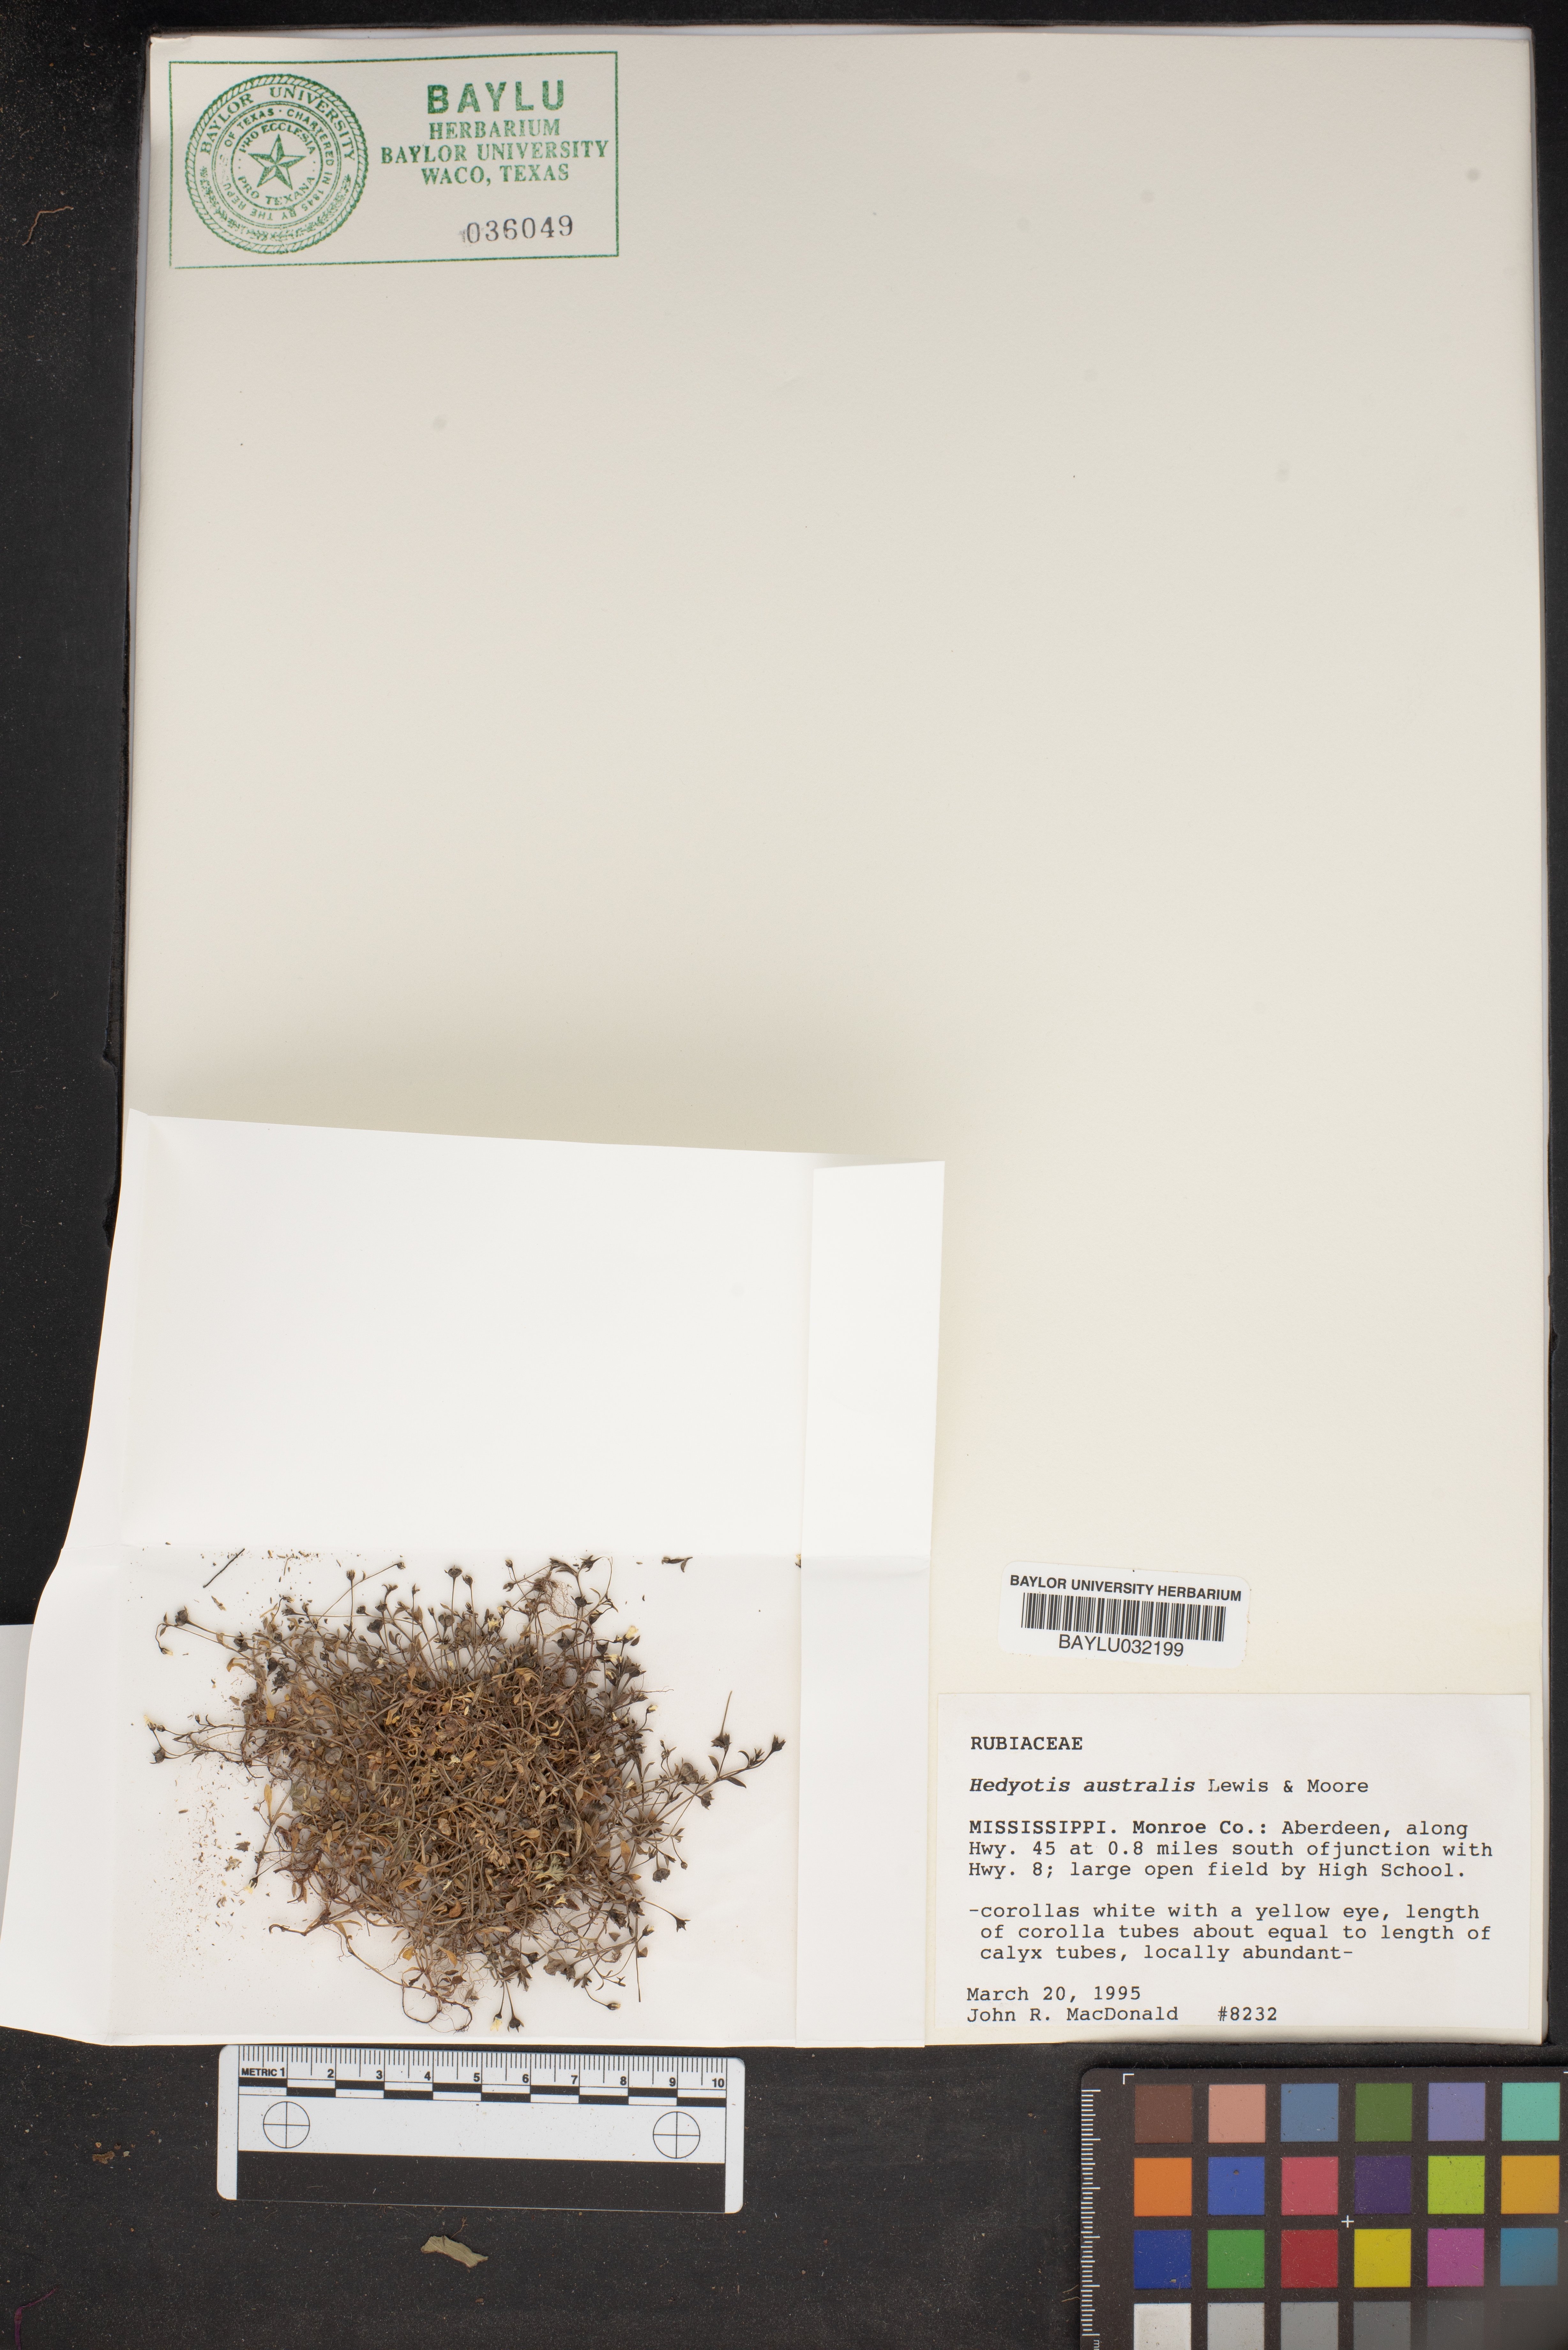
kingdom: Plantae
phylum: Tracheophyta
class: Magnoliopsida
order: Gentianales
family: Rubiaceae
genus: Houstonia
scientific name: Houstonia micrantha
